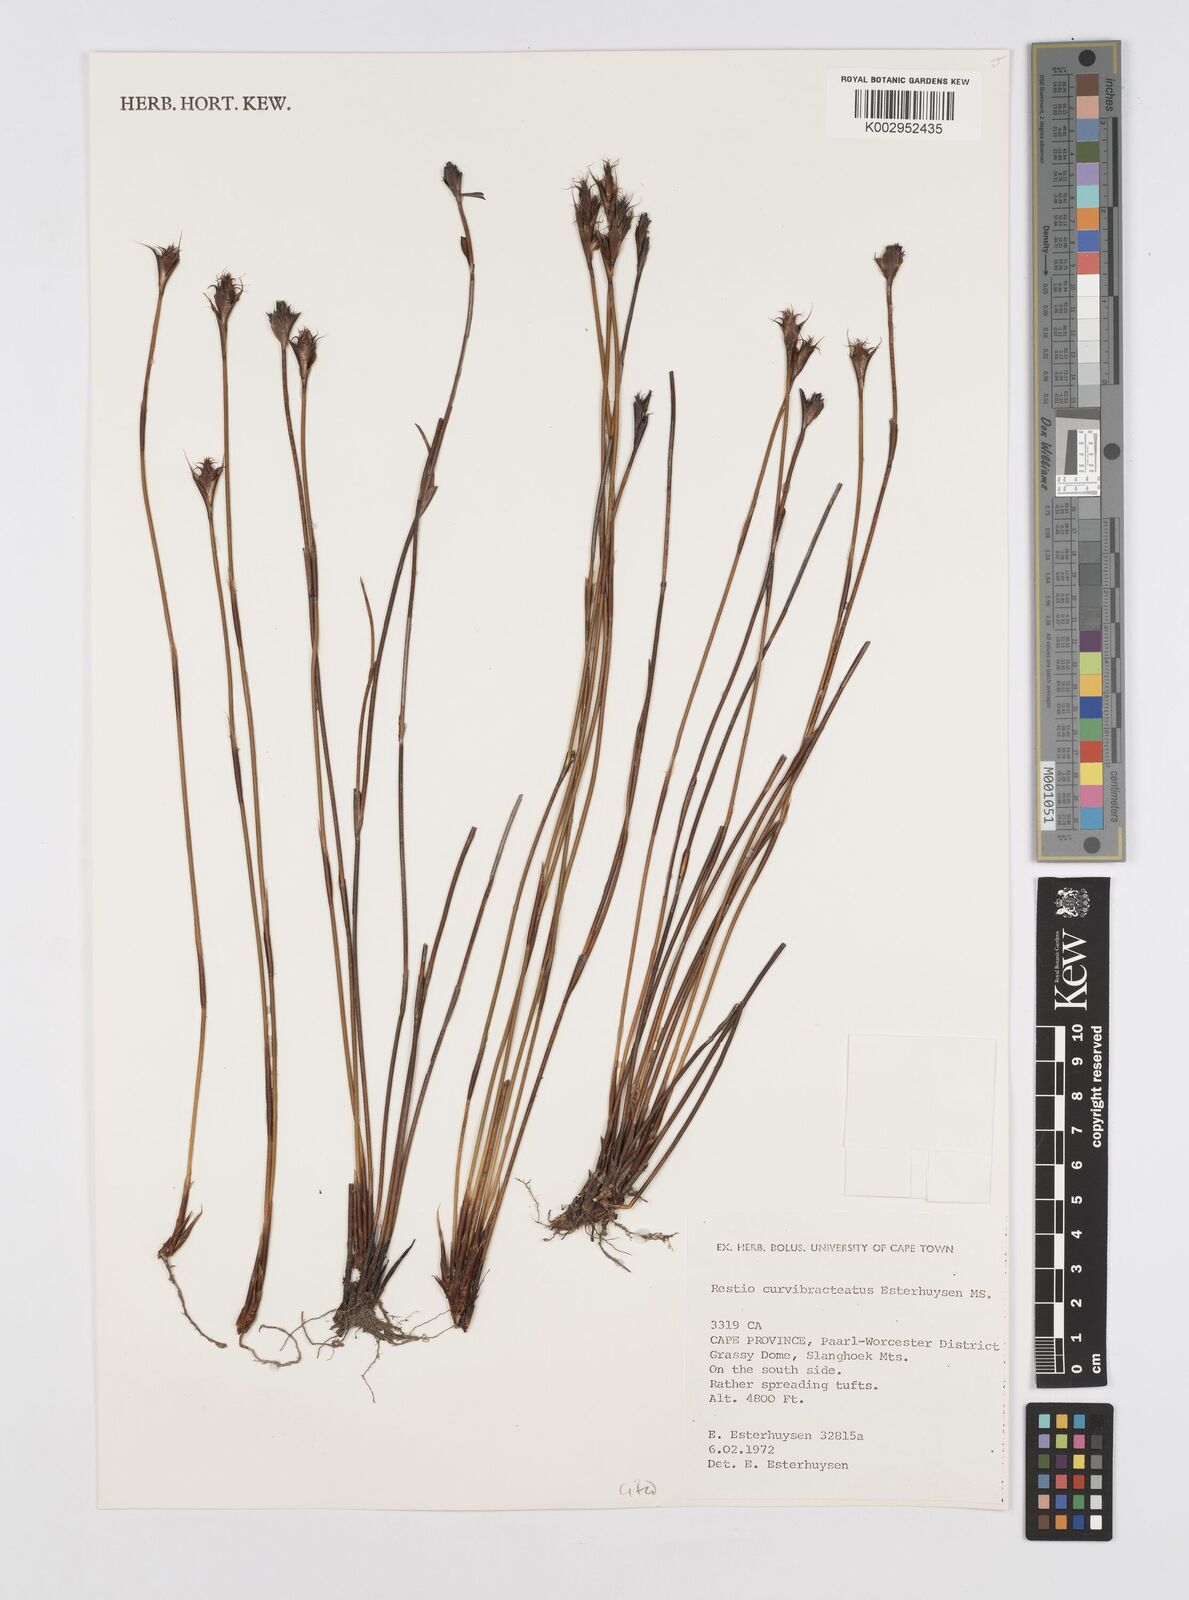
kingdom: Plantae
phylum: Tracheophyta
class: Liliopsida
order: Poales
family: Restionaceae
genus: Restio
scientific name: Restio curvibracteatus
